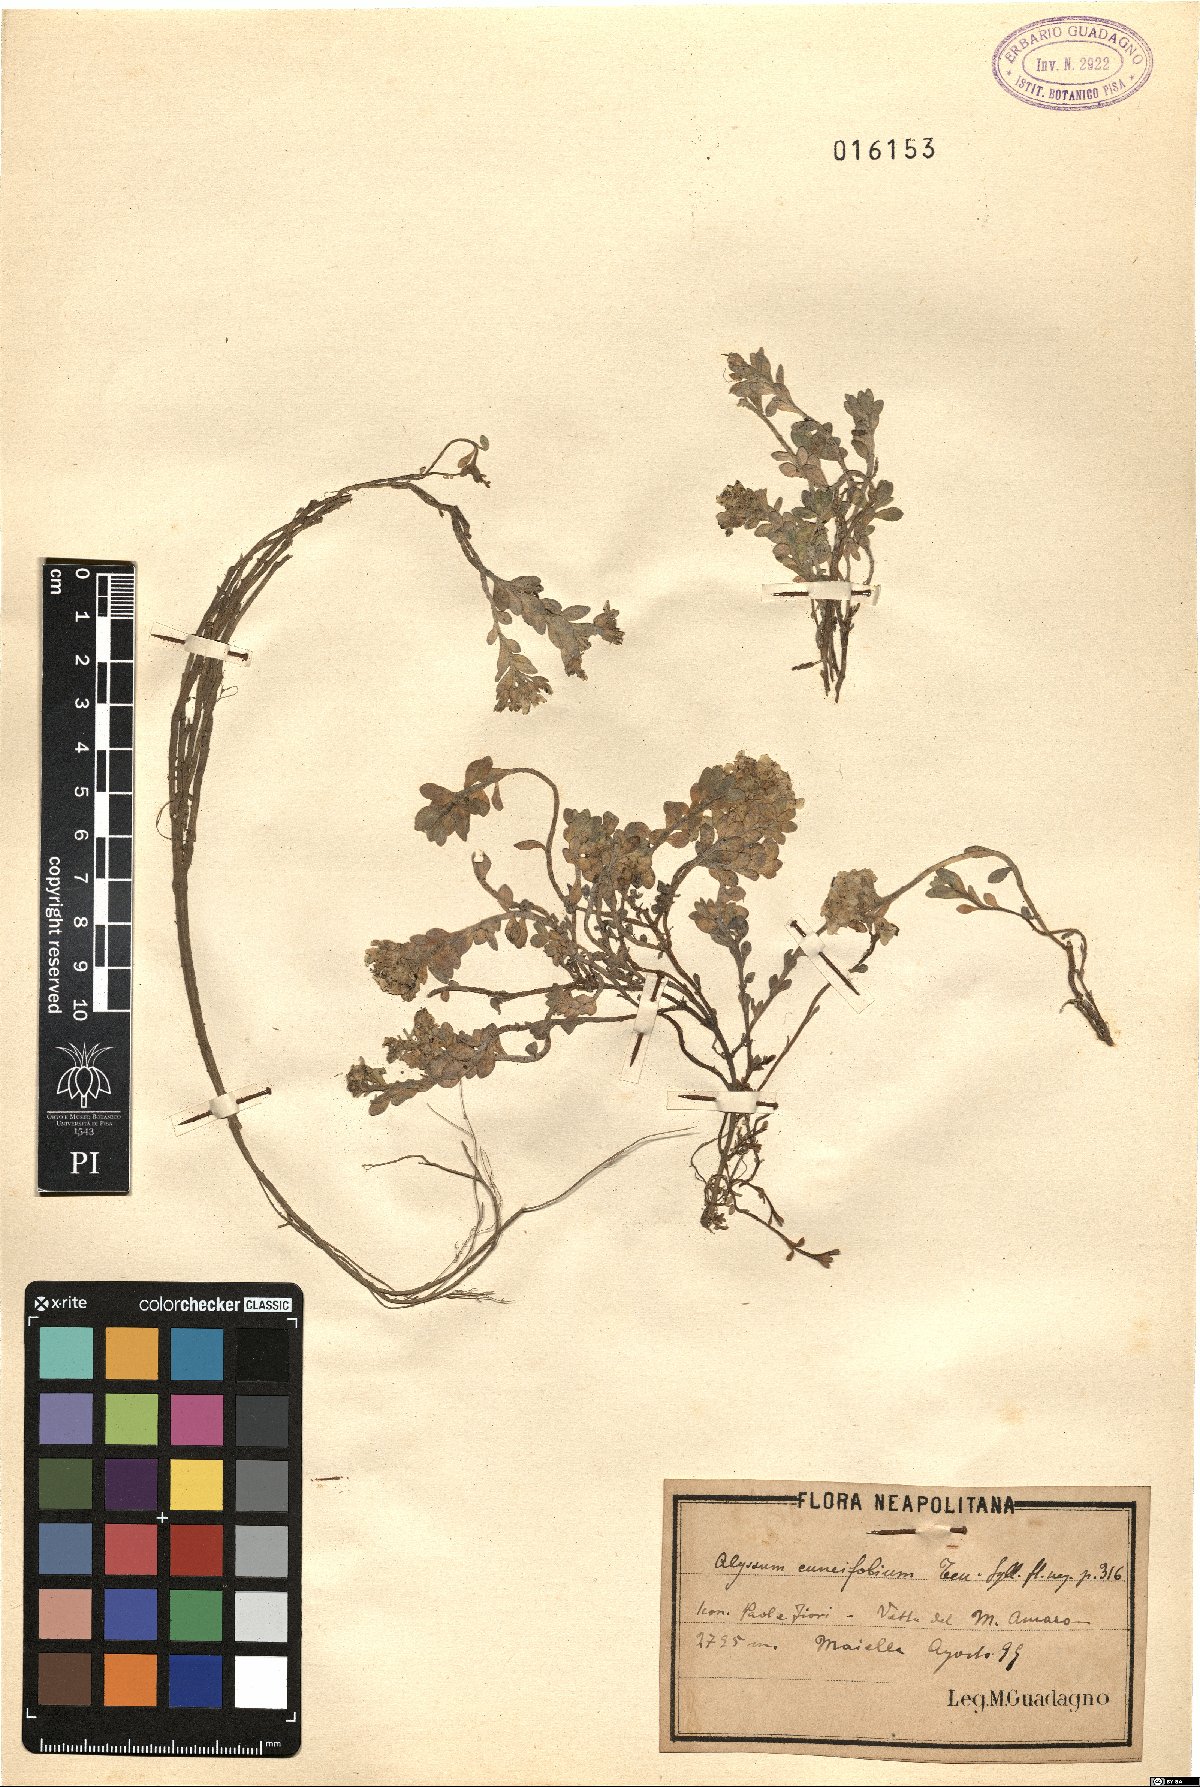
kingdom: Plantae
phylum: Tracheophyta
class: Magnoliopsida
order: Brassicales
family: Brassicaceae
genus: Alyssum
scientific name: Alyssum cuneifolium
